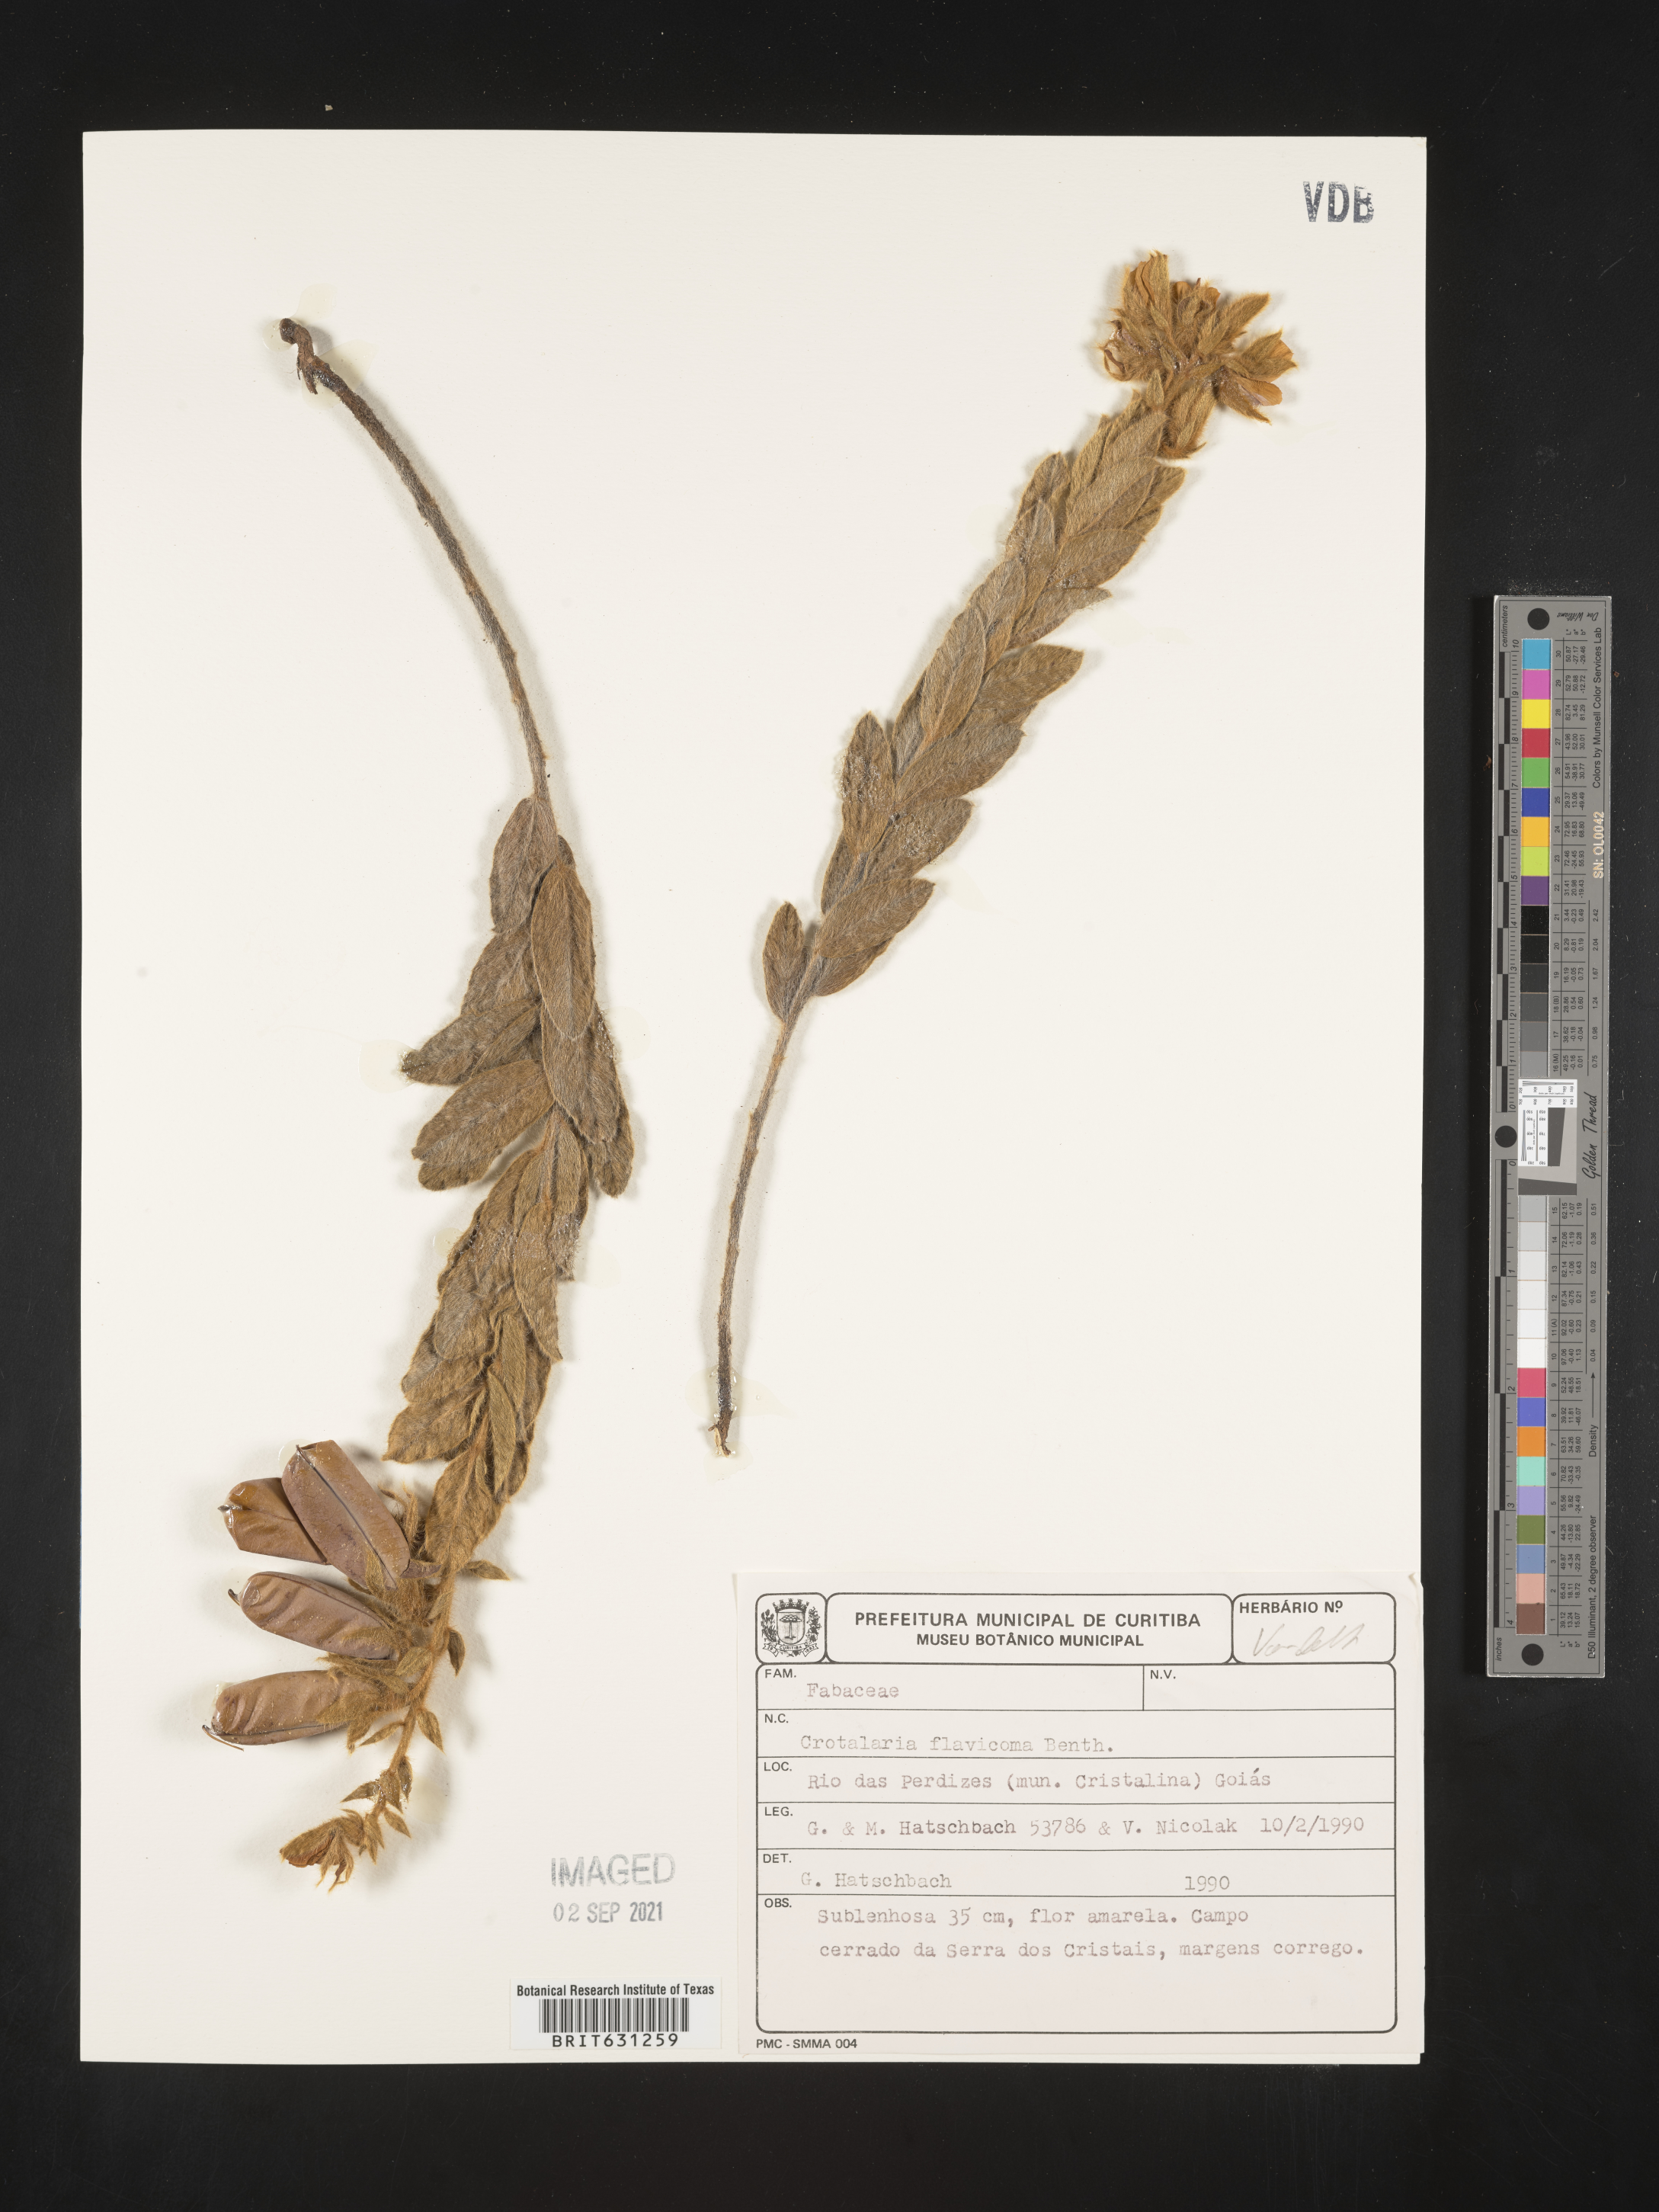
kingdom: Plantae
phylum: Tracheophyta
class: Magnoliopsida
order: Fabales
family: Fabaceae
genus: Crotalaria
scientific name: Crotalaria flavicoma
